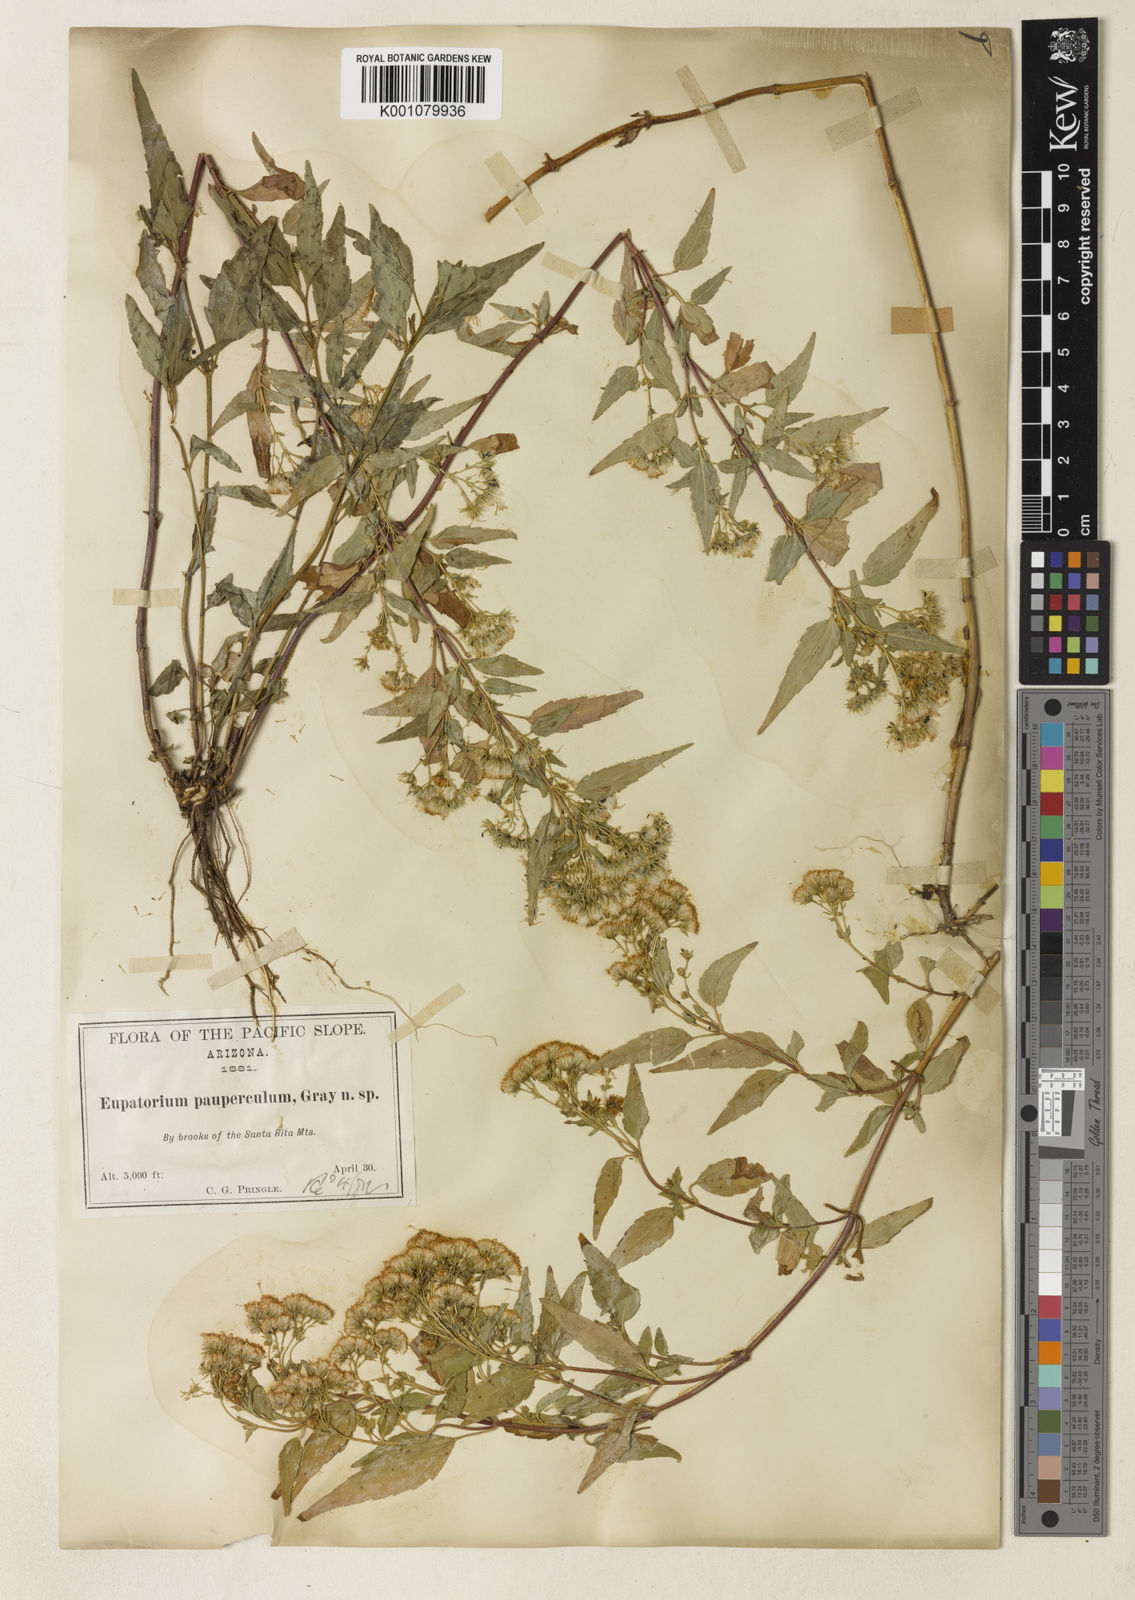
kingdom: Plantae
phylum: Tracheophyta
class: Magnoliopsida
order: Asterales
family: Asteraceae
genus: Ageratina
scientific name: Ageratina paupercula
